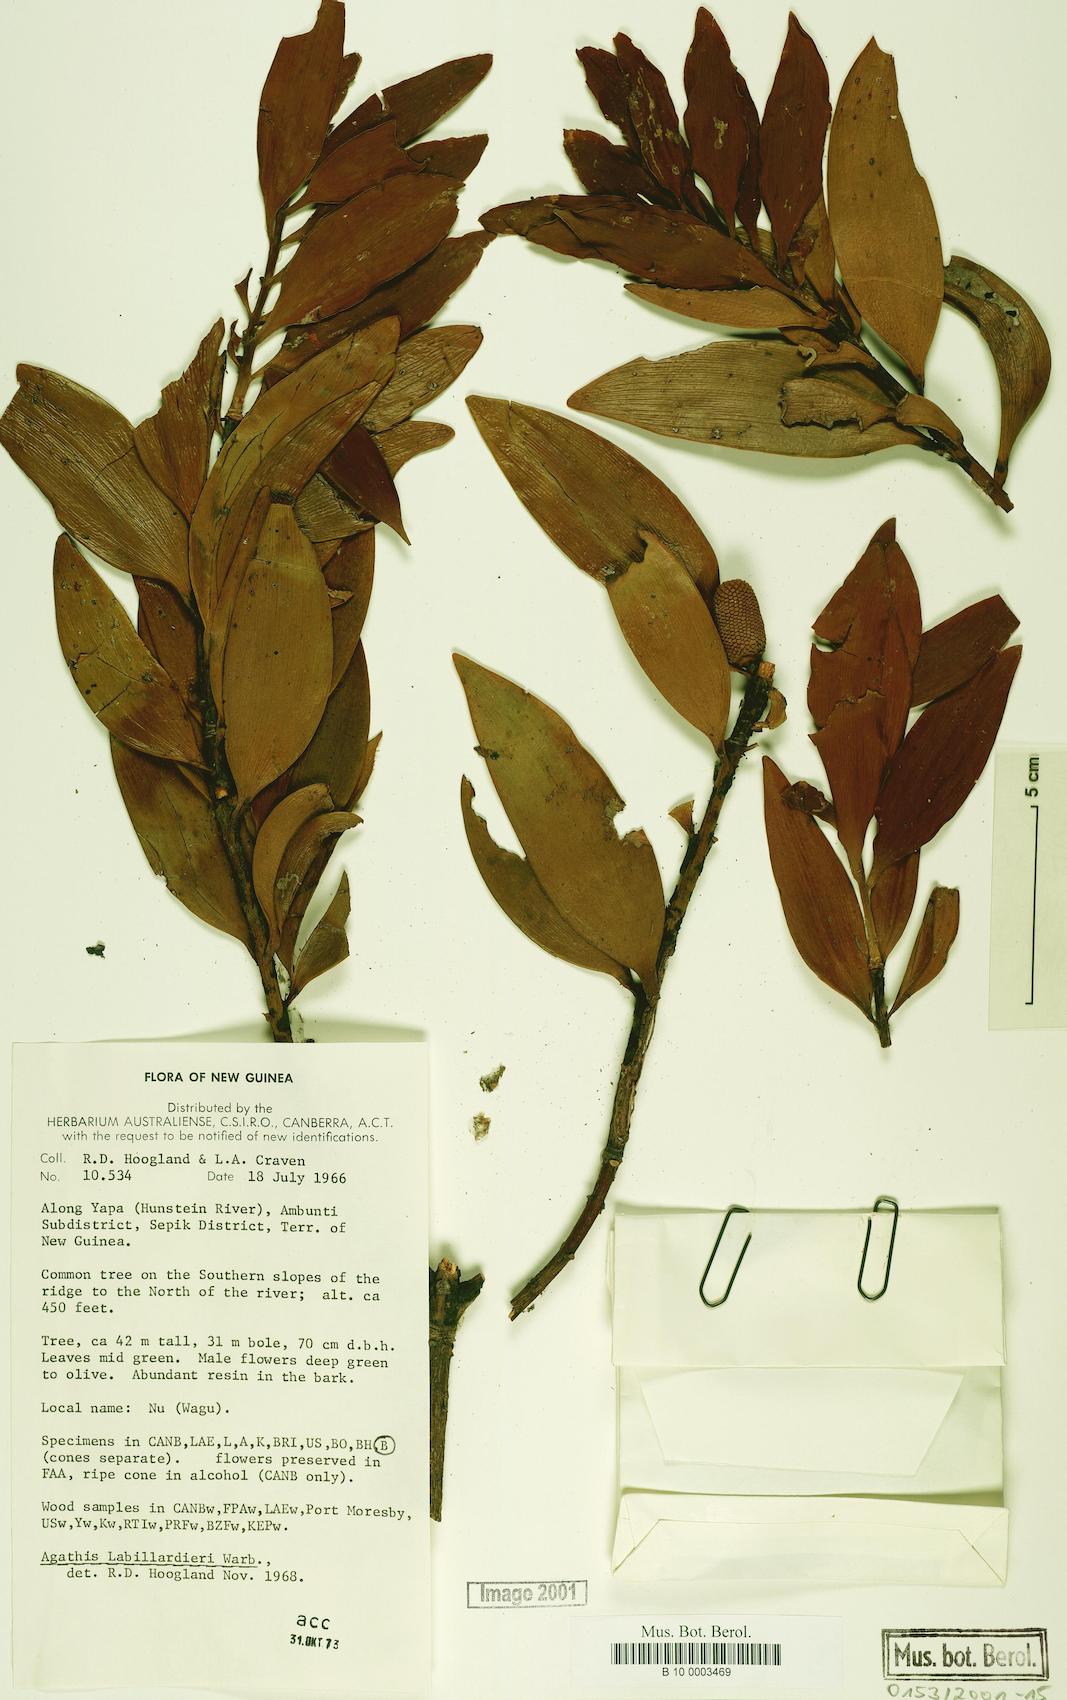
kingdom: Plantae
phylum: Tracheophyta
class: Pinopsida
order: Pinales
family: Araucariaceae
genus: Agathis
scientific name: Agathis labillardierei
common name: New guinea kauri
